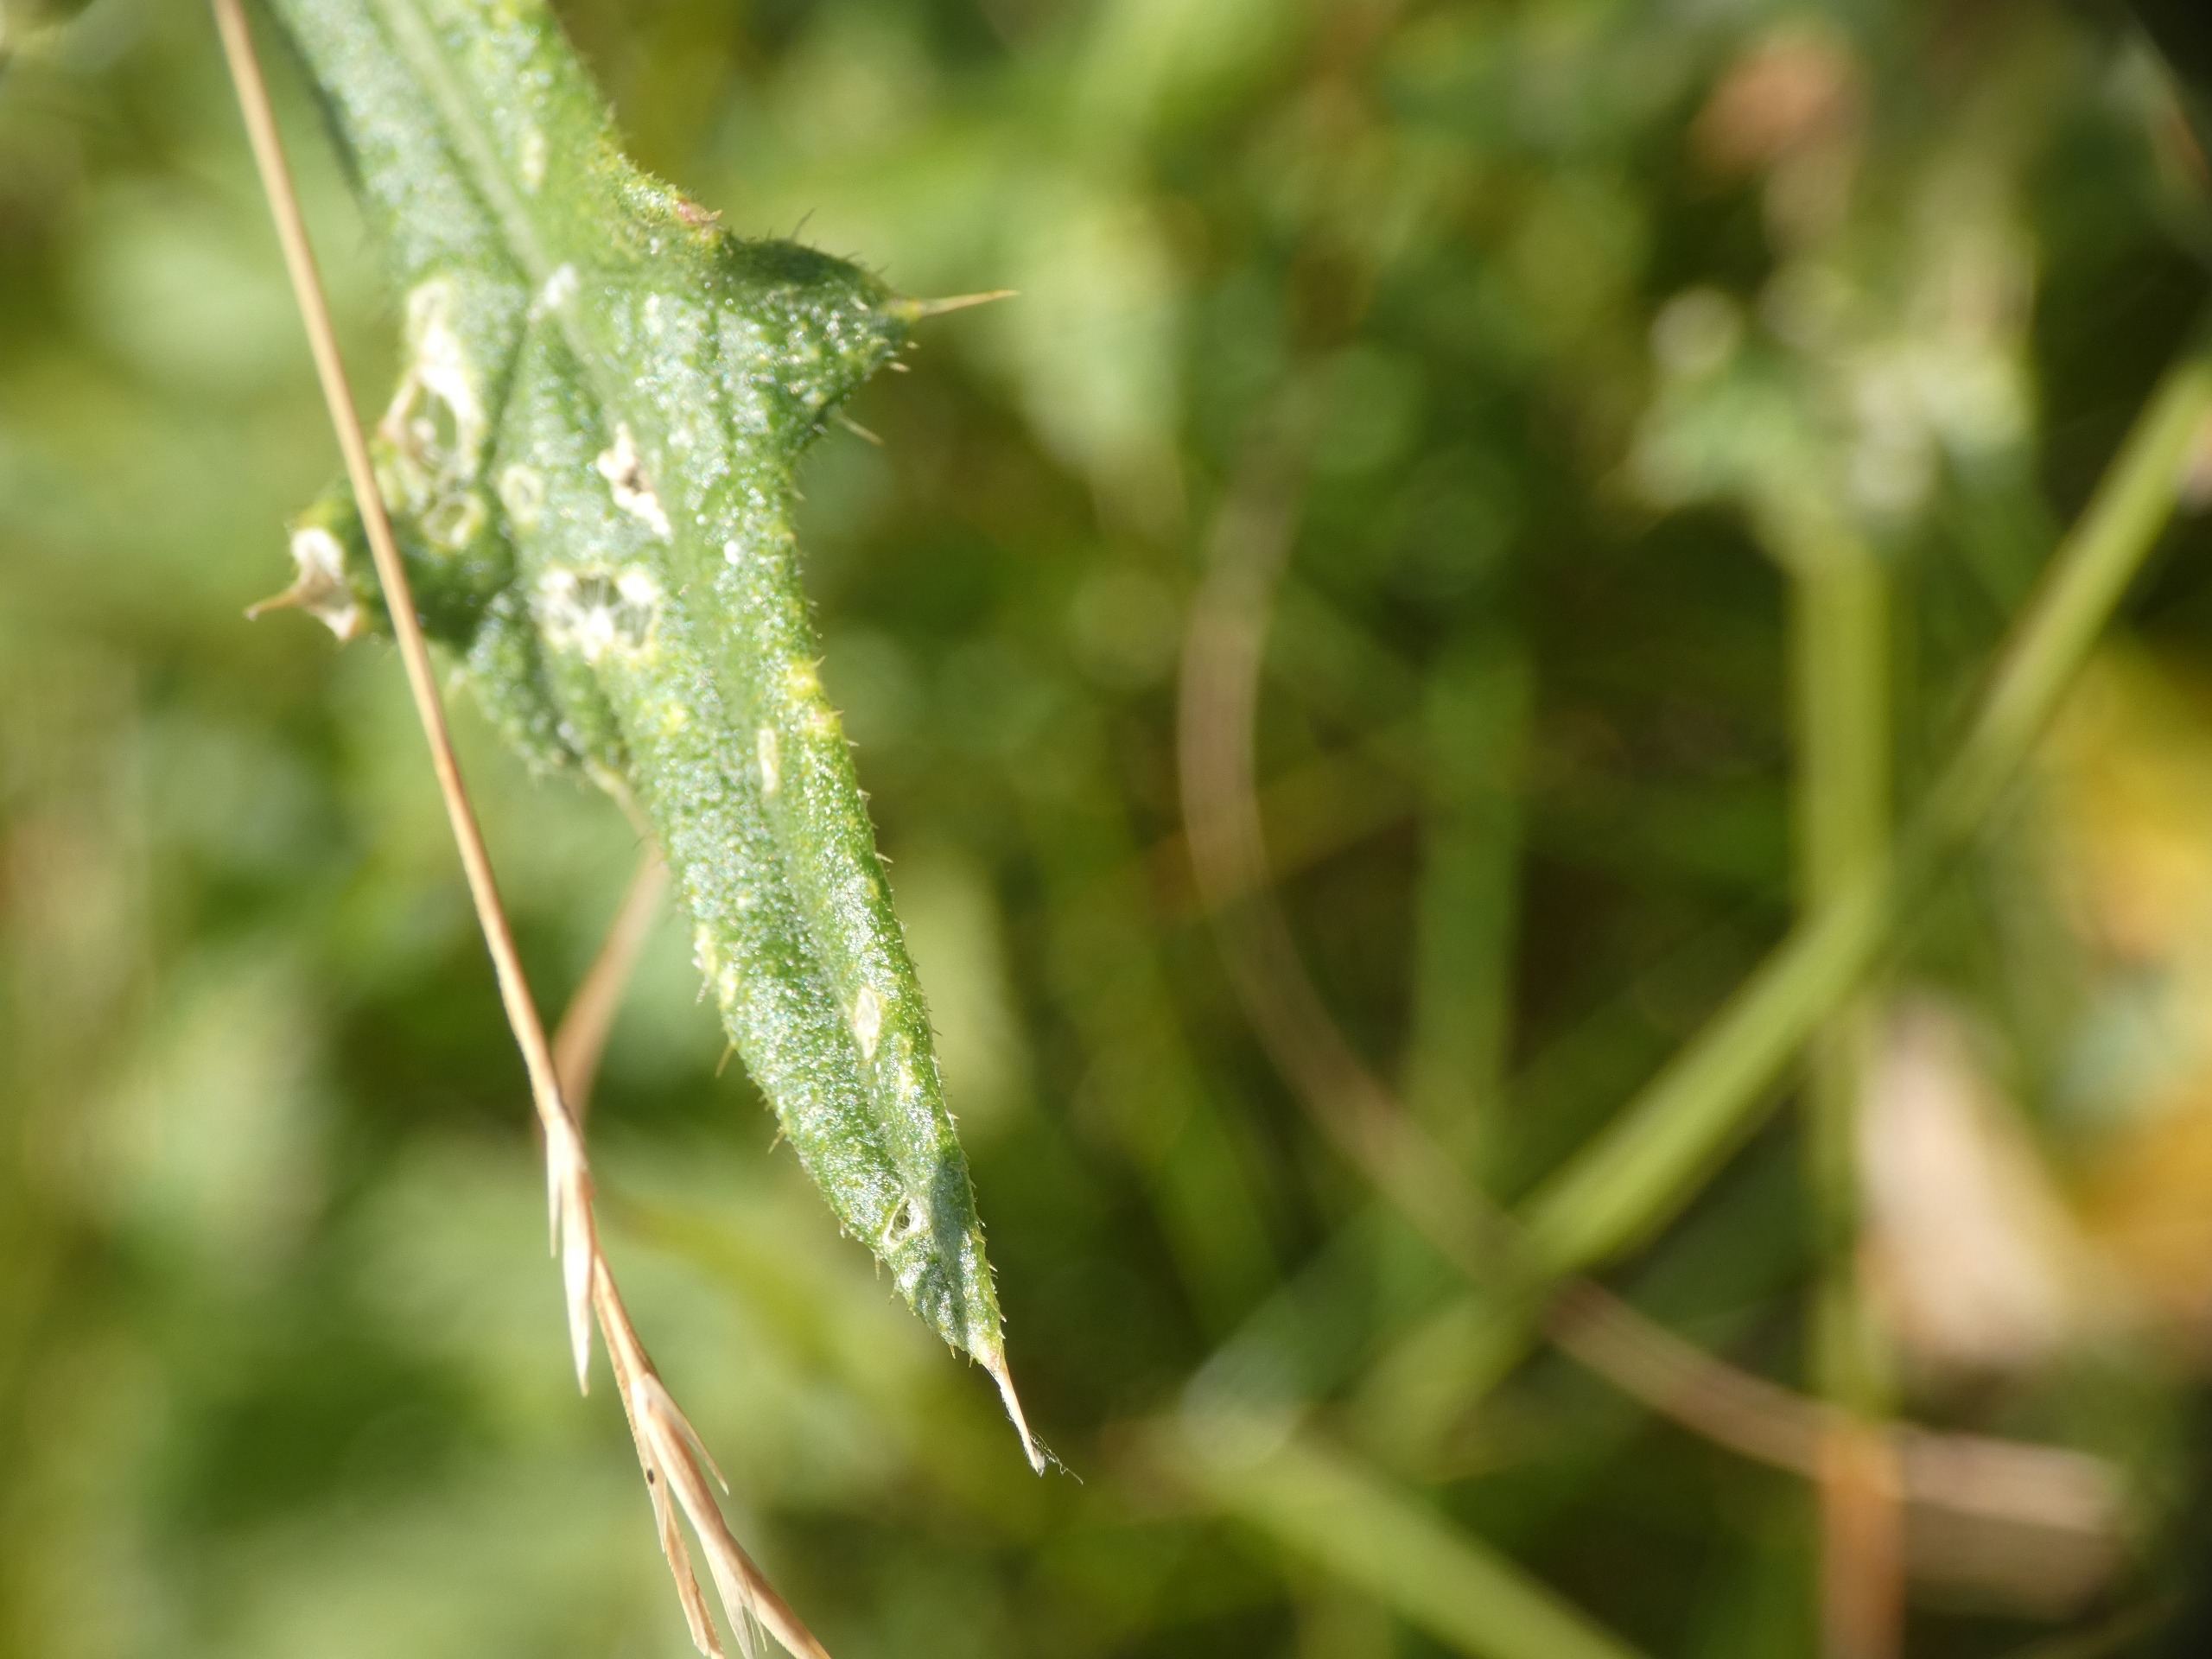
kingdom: Plantae
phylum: Tracheophyta
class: Magnoliopsida
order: Asterales
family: Asteraceae
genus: Cirsium
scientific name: Cirsium vulgare
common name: Horse-tidsel
